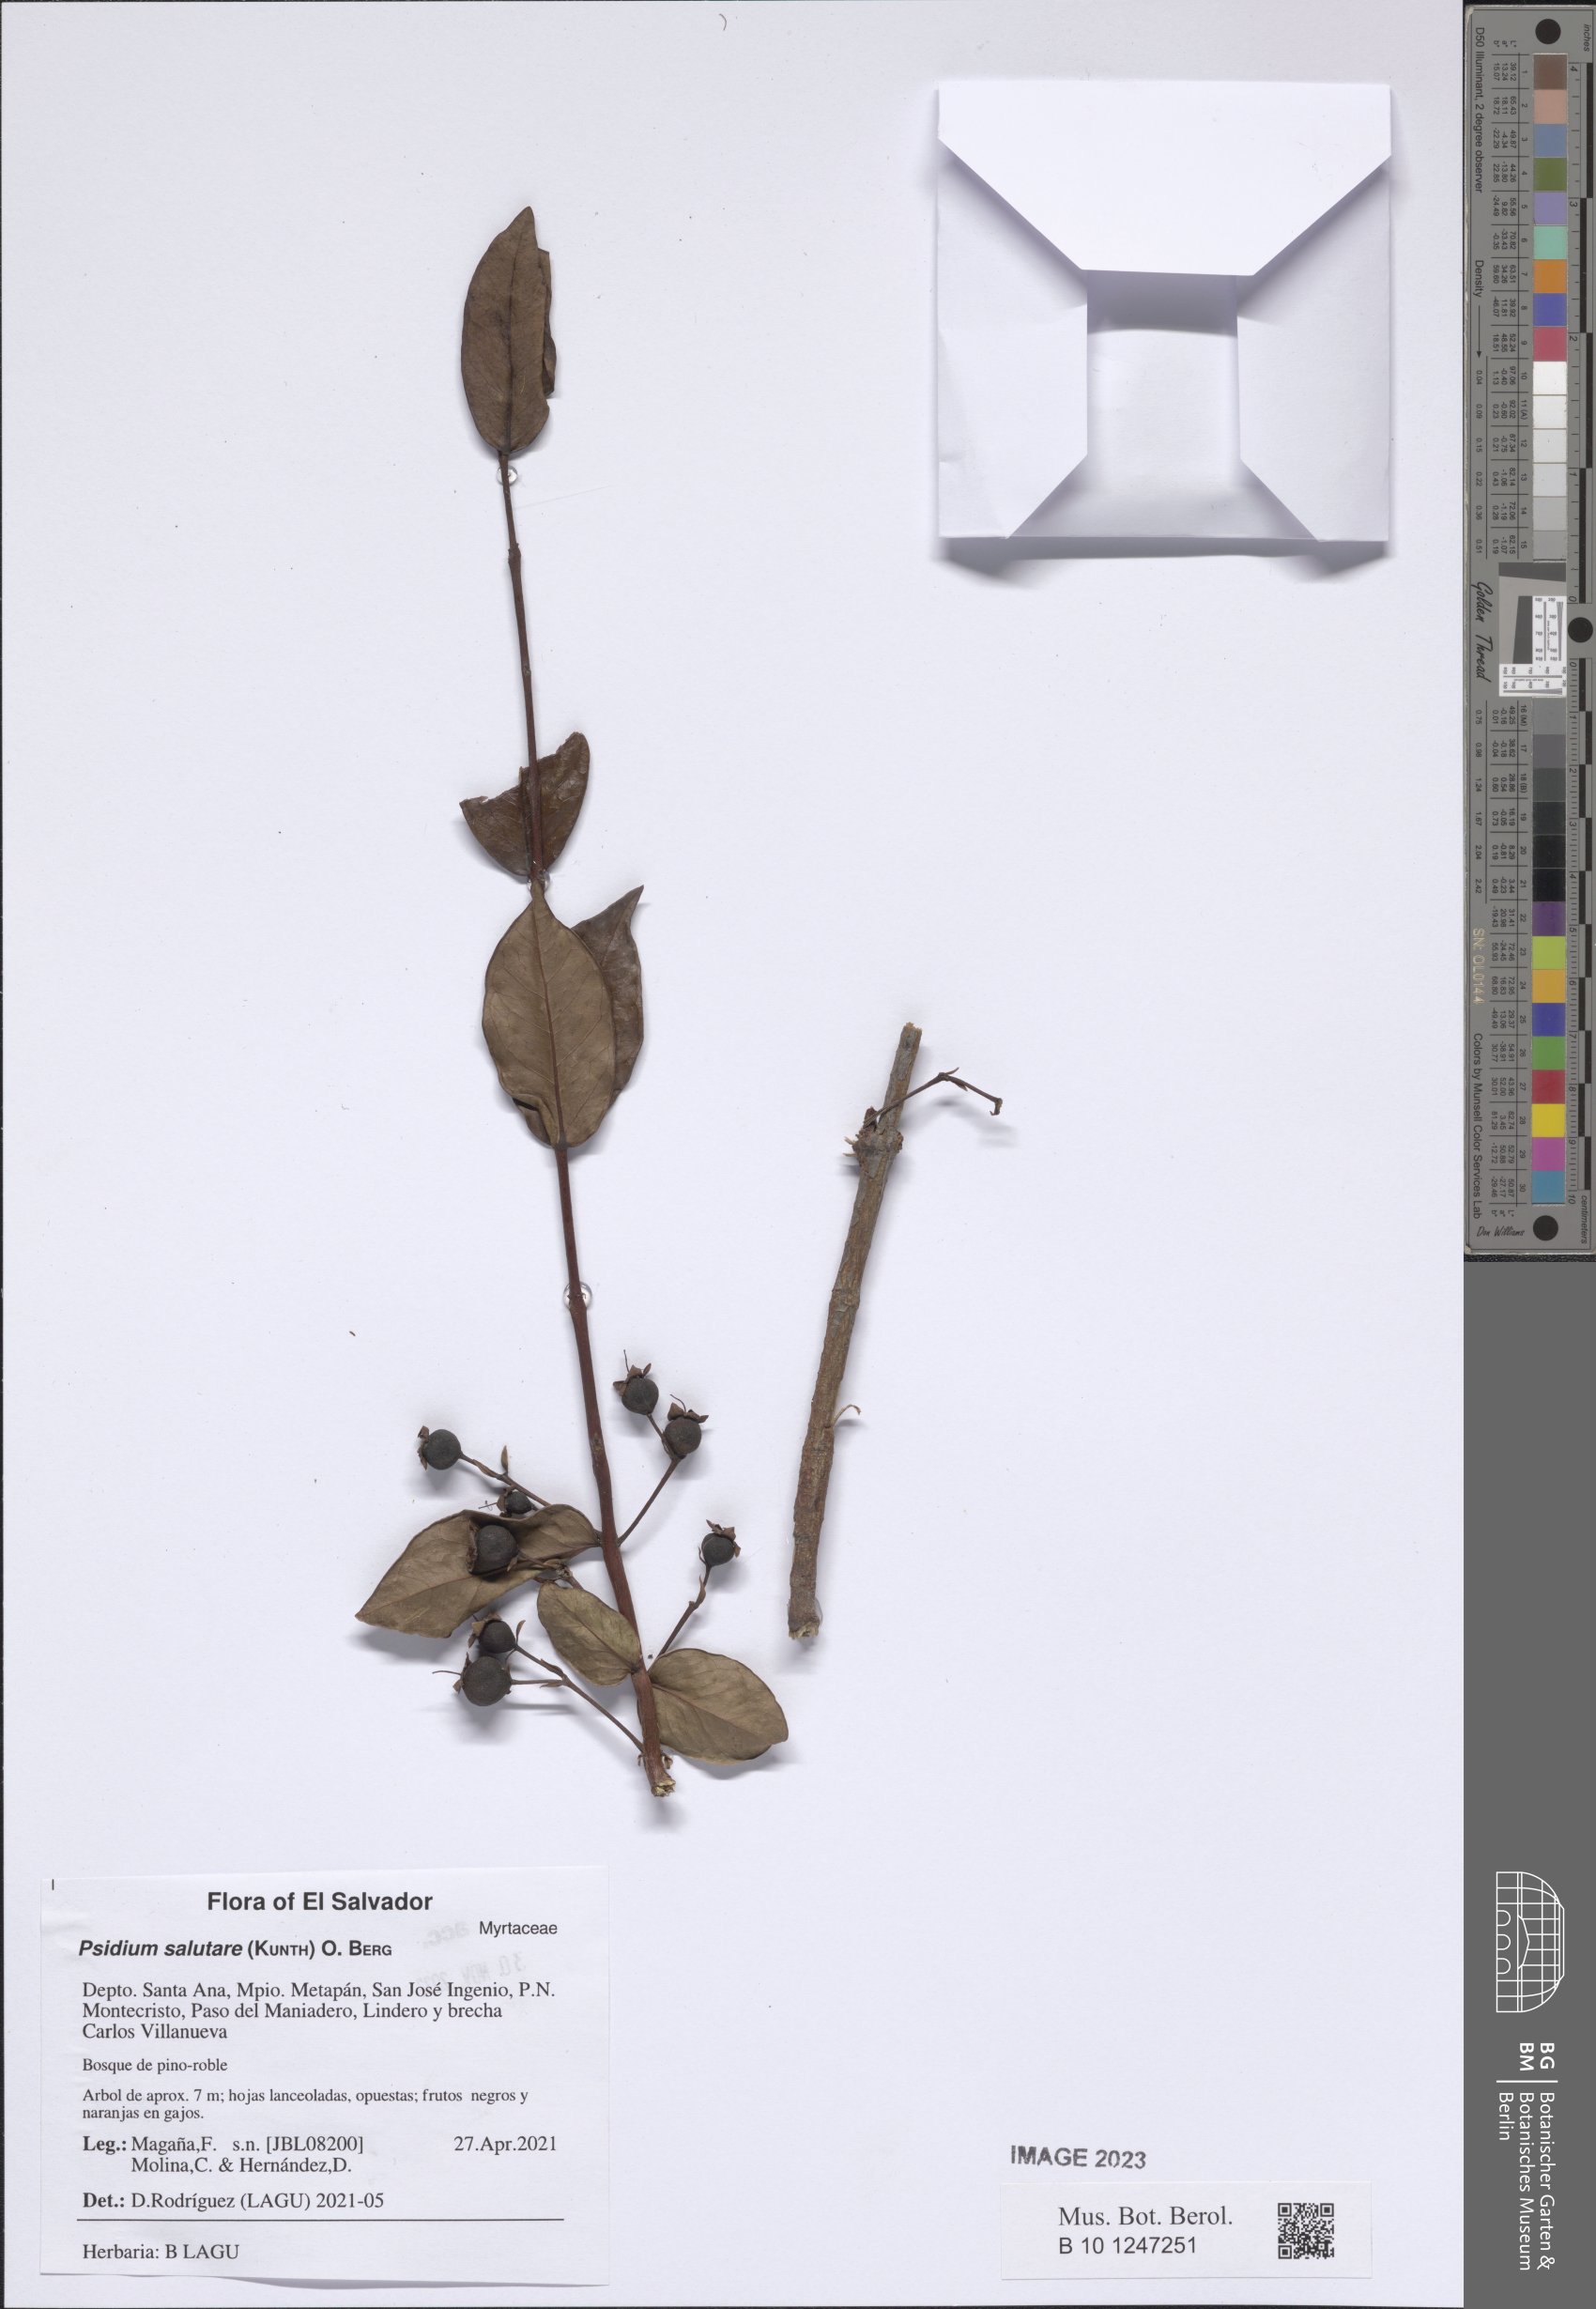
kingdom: Plantae
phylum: Tracheophyta
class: Magnoliopsida
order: Myrtales
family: Myrtaceae
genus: Psidium
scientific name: Psidium salutare
